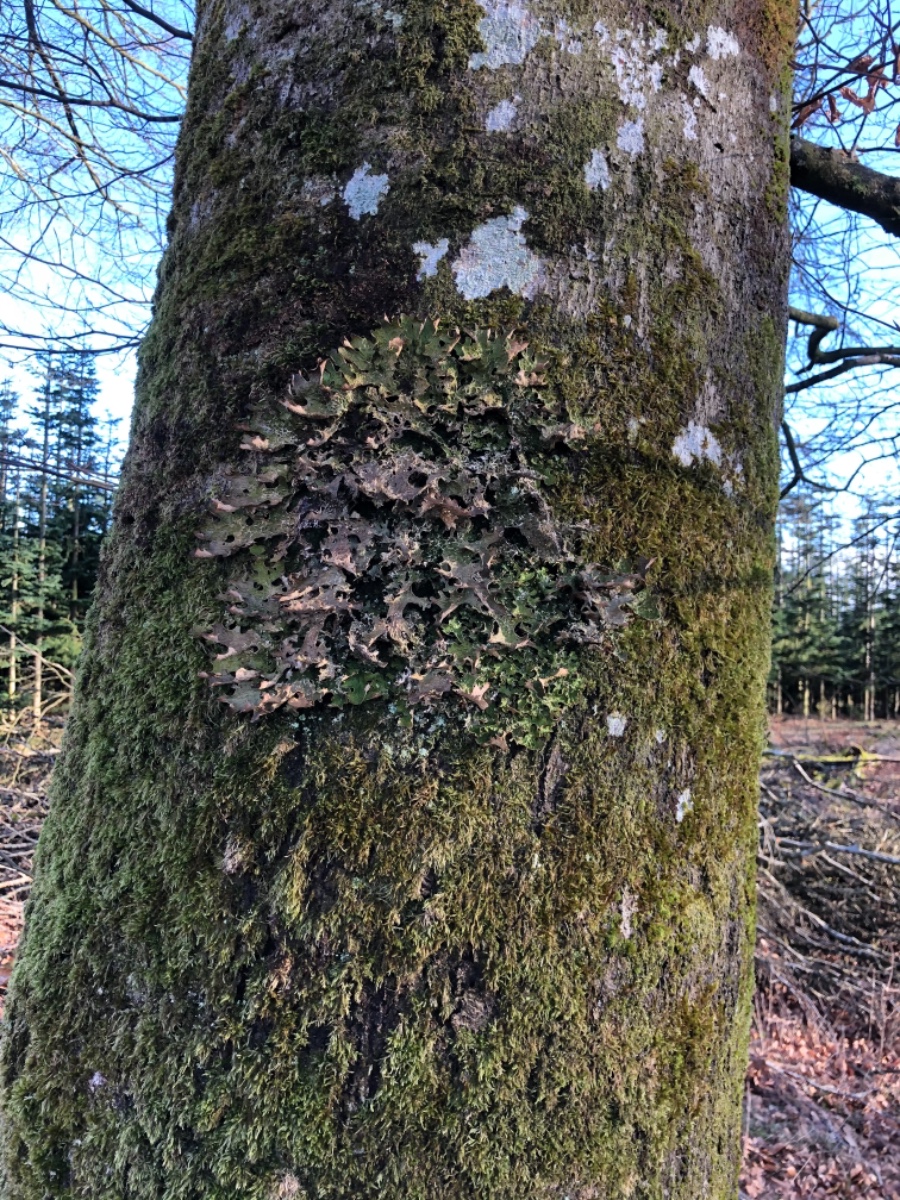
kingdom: Fungi
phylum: Ascomycota
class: Lecanoromycetes
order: Peltigerales
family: Lobariaceae
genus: Lobaria
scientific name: Lobaria pulmonaria
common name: almindelig lungelav
